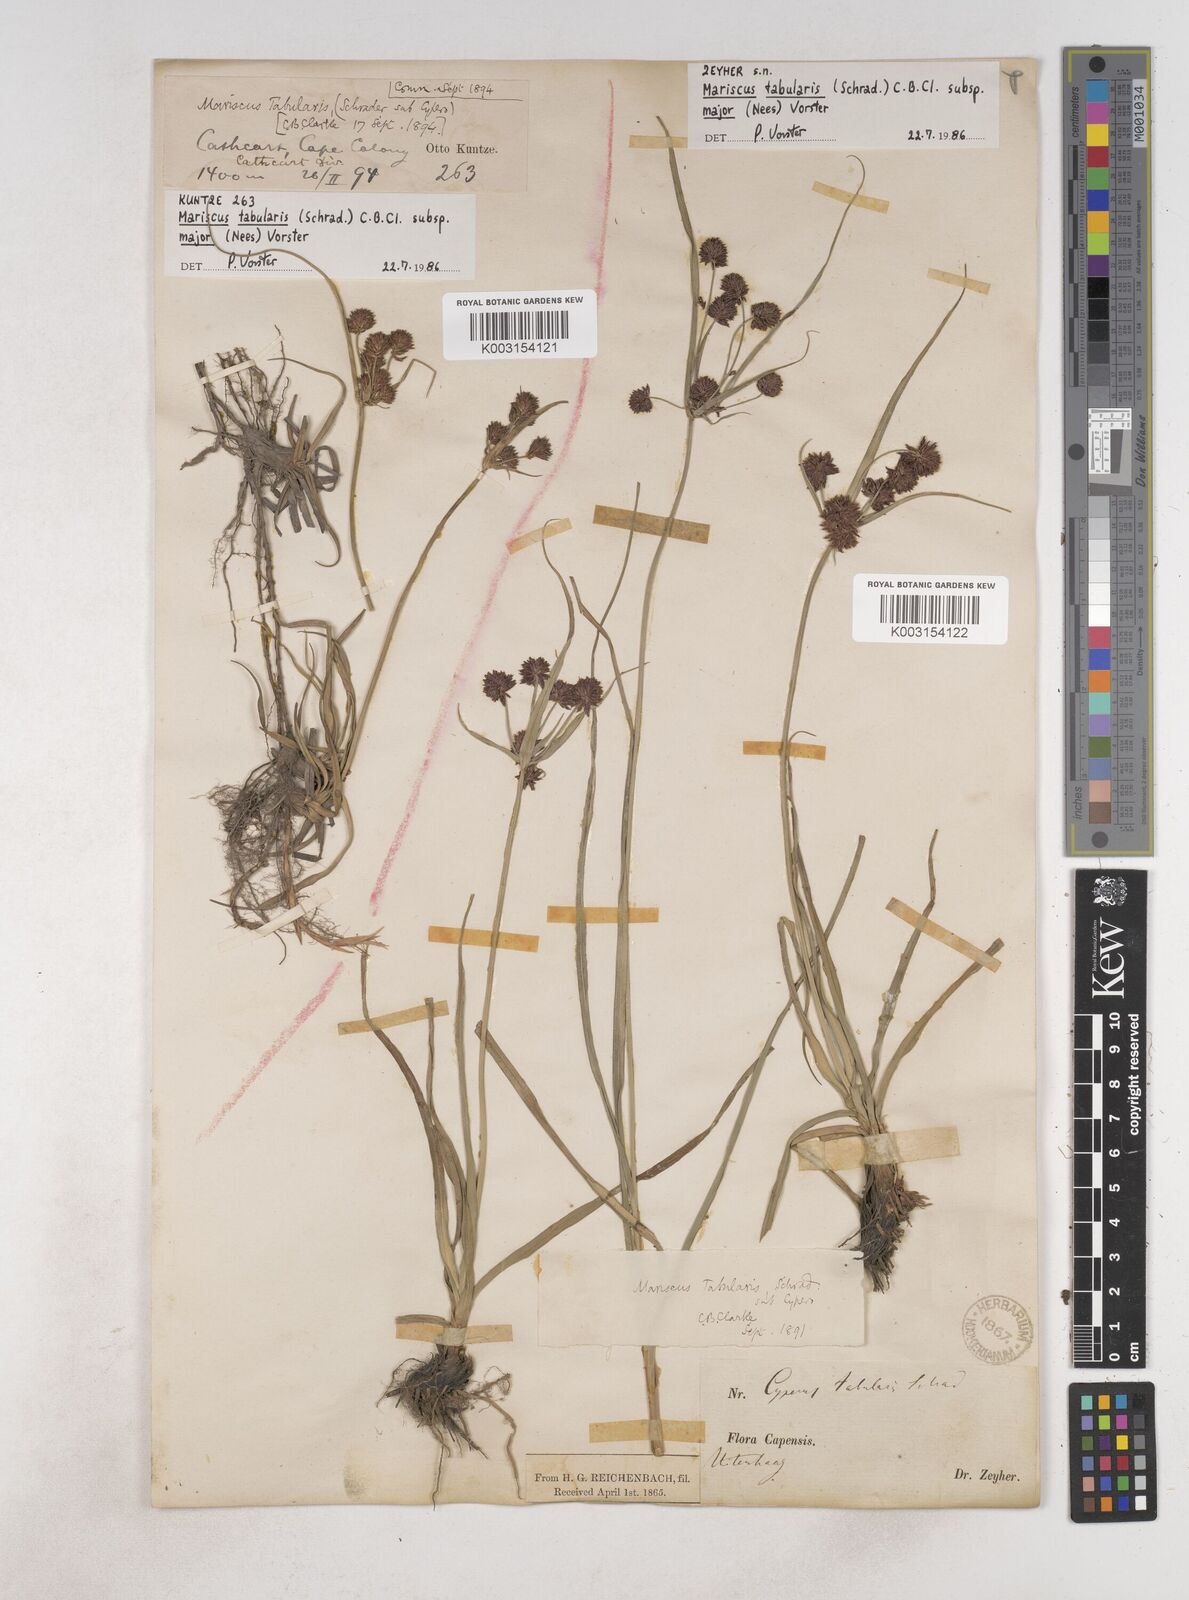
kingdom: Plantae
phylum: Tracheophyta
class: Liliopsida
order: Poales
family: Cyperaceae
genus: Cyperus
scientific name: Cyperus tabularis
